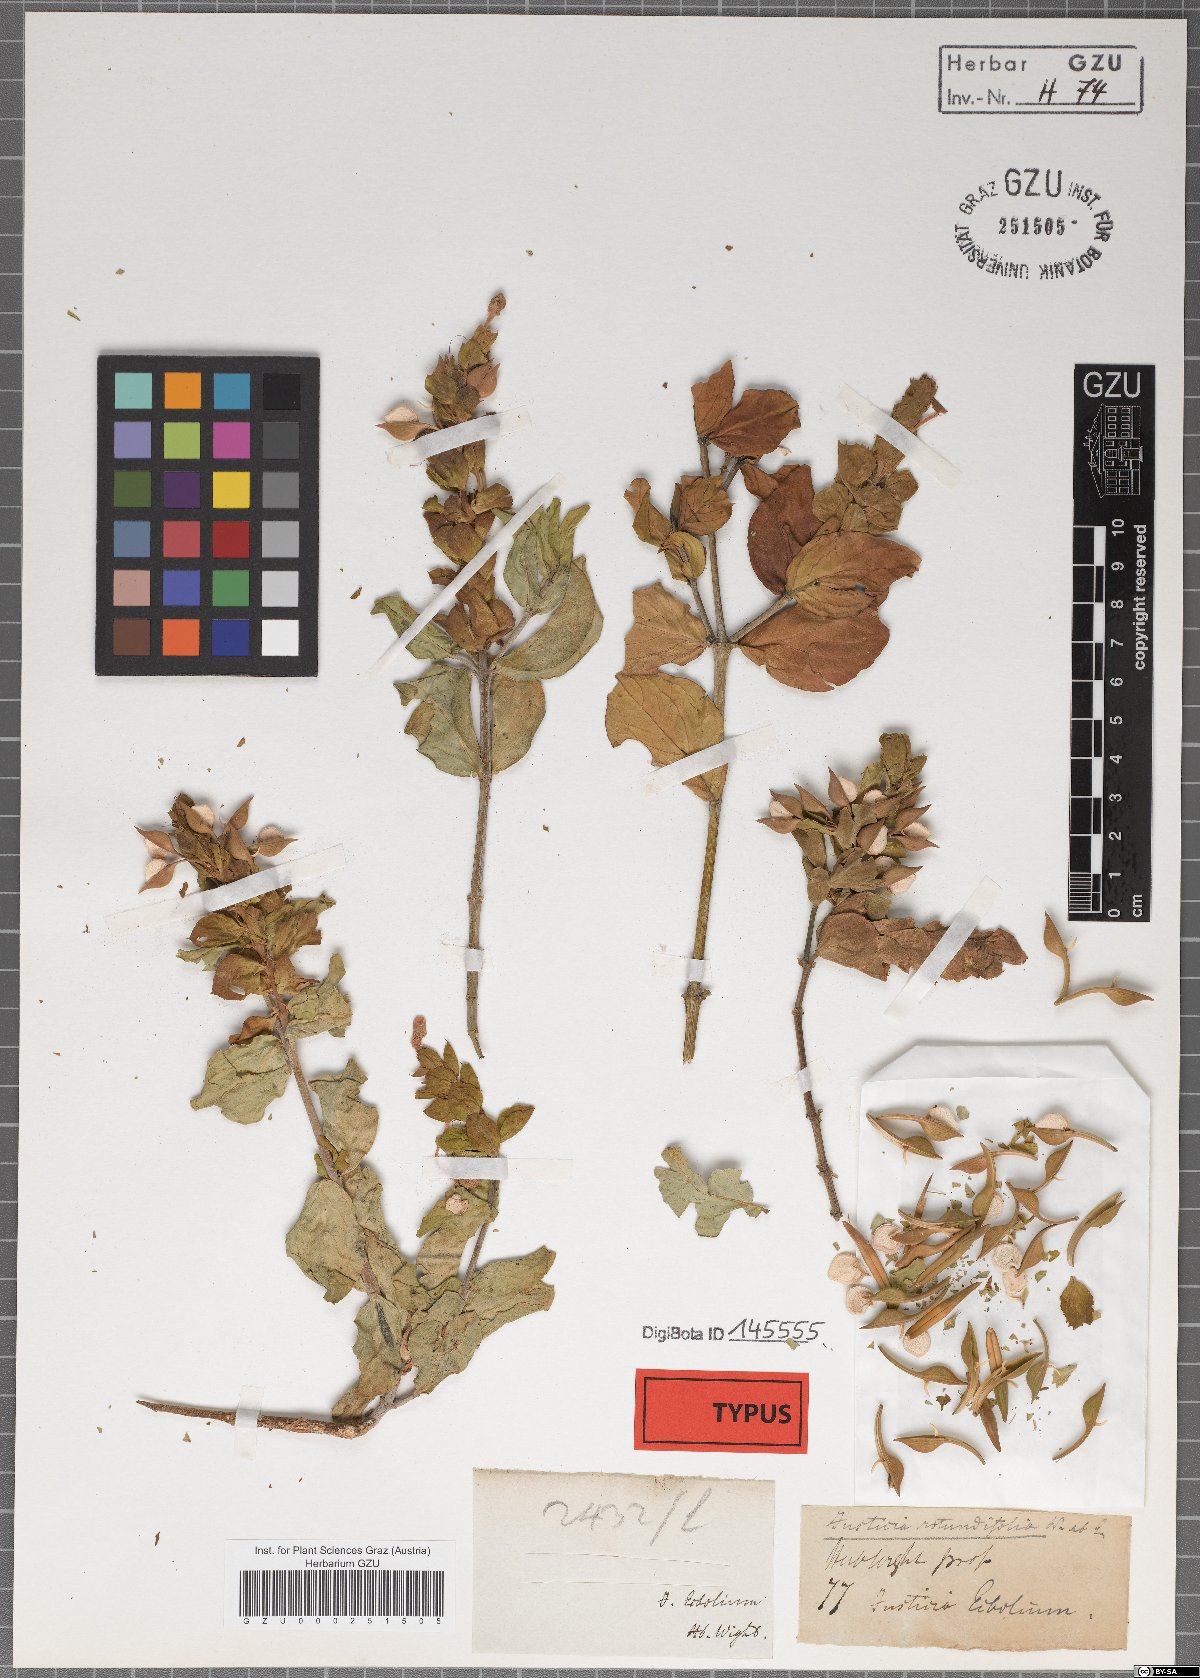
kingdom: Plantae
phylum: Tracheophyta
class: Magnoliopsida
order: Lamiales
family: Acanthaceae
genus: Ecbolium
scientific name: Ecbolium viride
